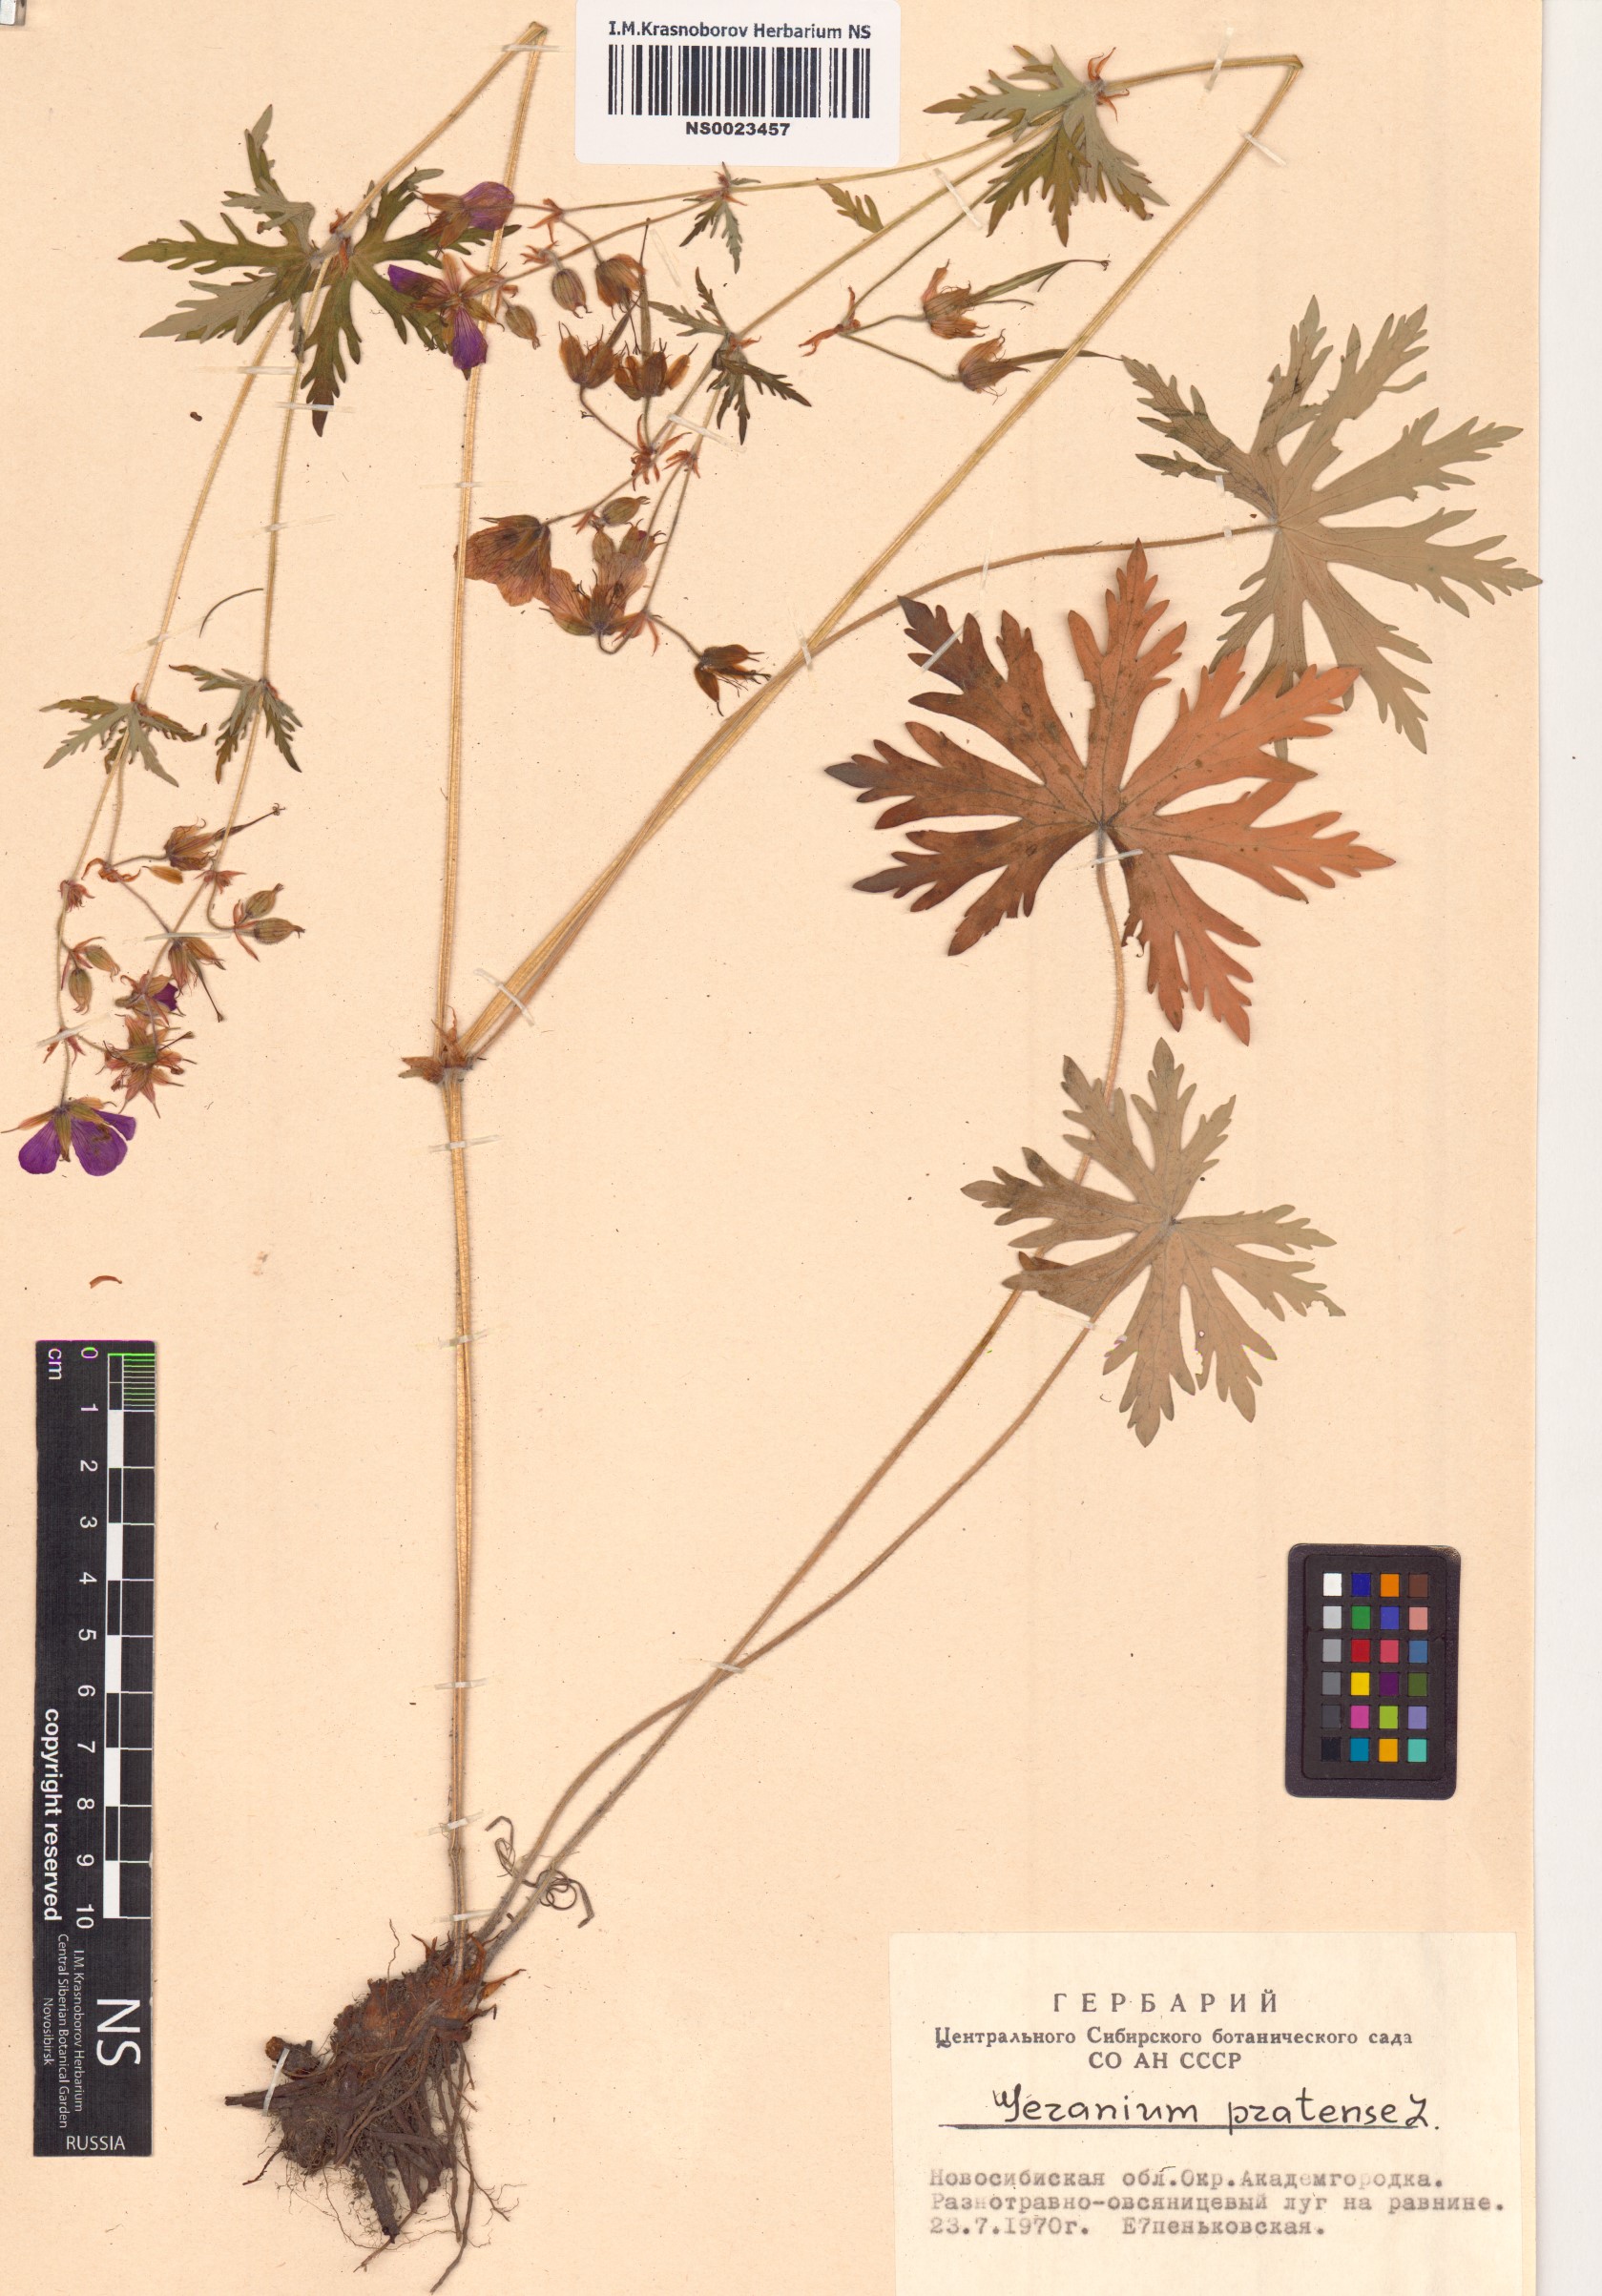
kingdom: Plantae
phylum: Tracheophyta
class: Magnoliopsida
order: Geraniales
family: Geraniaceae
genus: Geranium
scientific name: Geranium pratense
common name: Meadow crane's-bill
